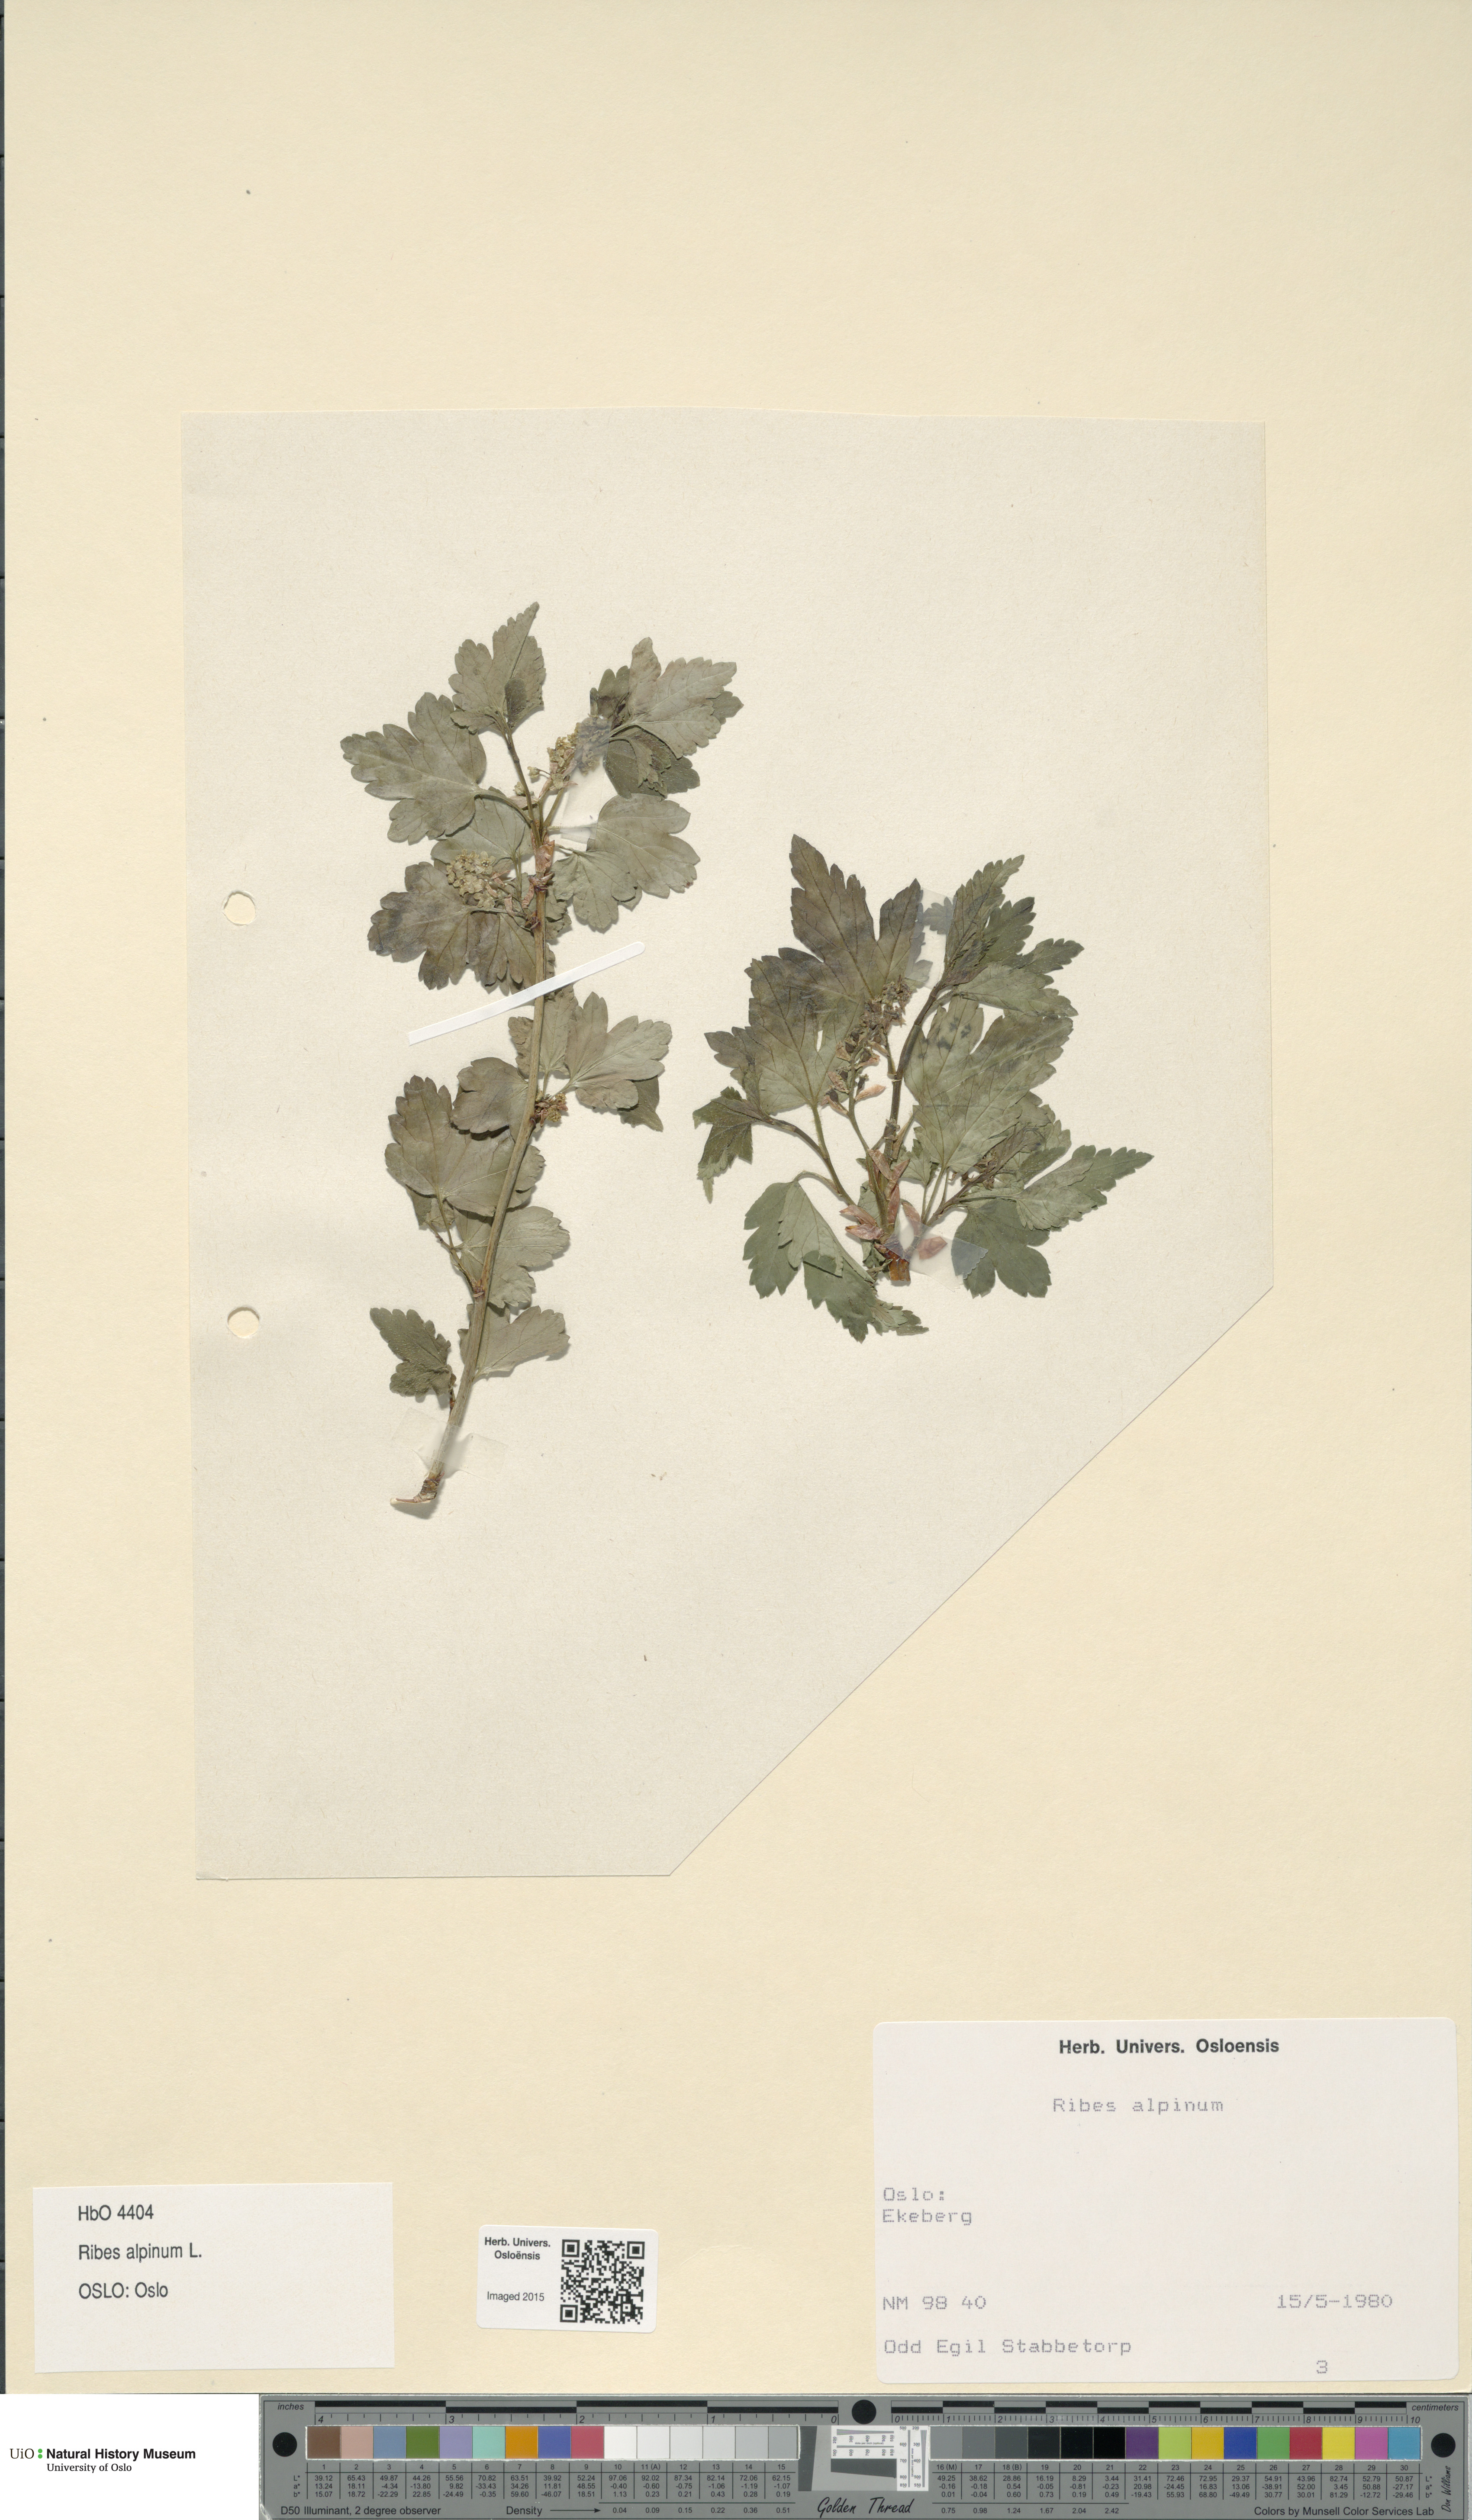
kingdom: Plantae
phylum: Tracheophyta
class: Magnoliopsida
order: Saxifragales
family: Grossulariaceae
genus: Ribes
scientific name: Ribes alpinum
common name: Alpine currant
